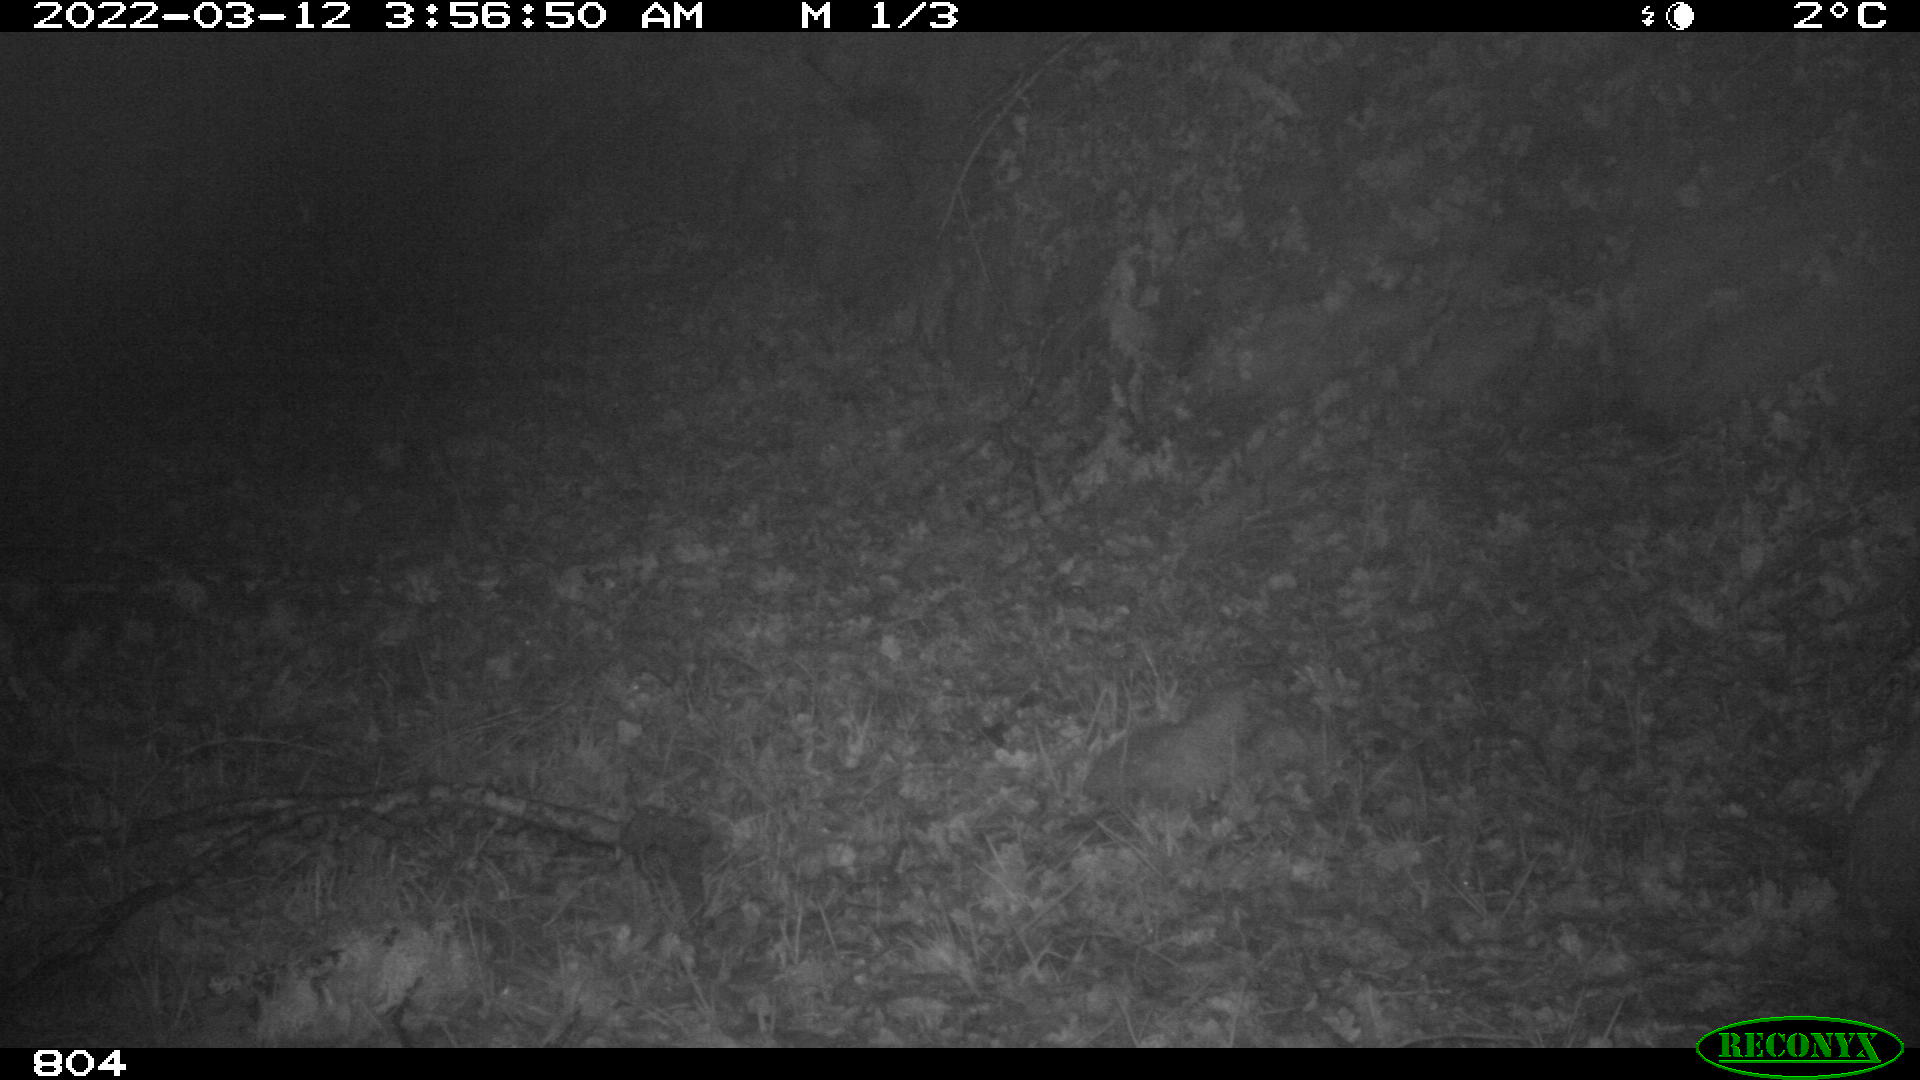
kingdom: Animalia
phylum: Chordata
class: Mammalia
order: Perissodactyla
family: Equidae
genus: Equus
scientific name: Equus caballus
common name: Horse
